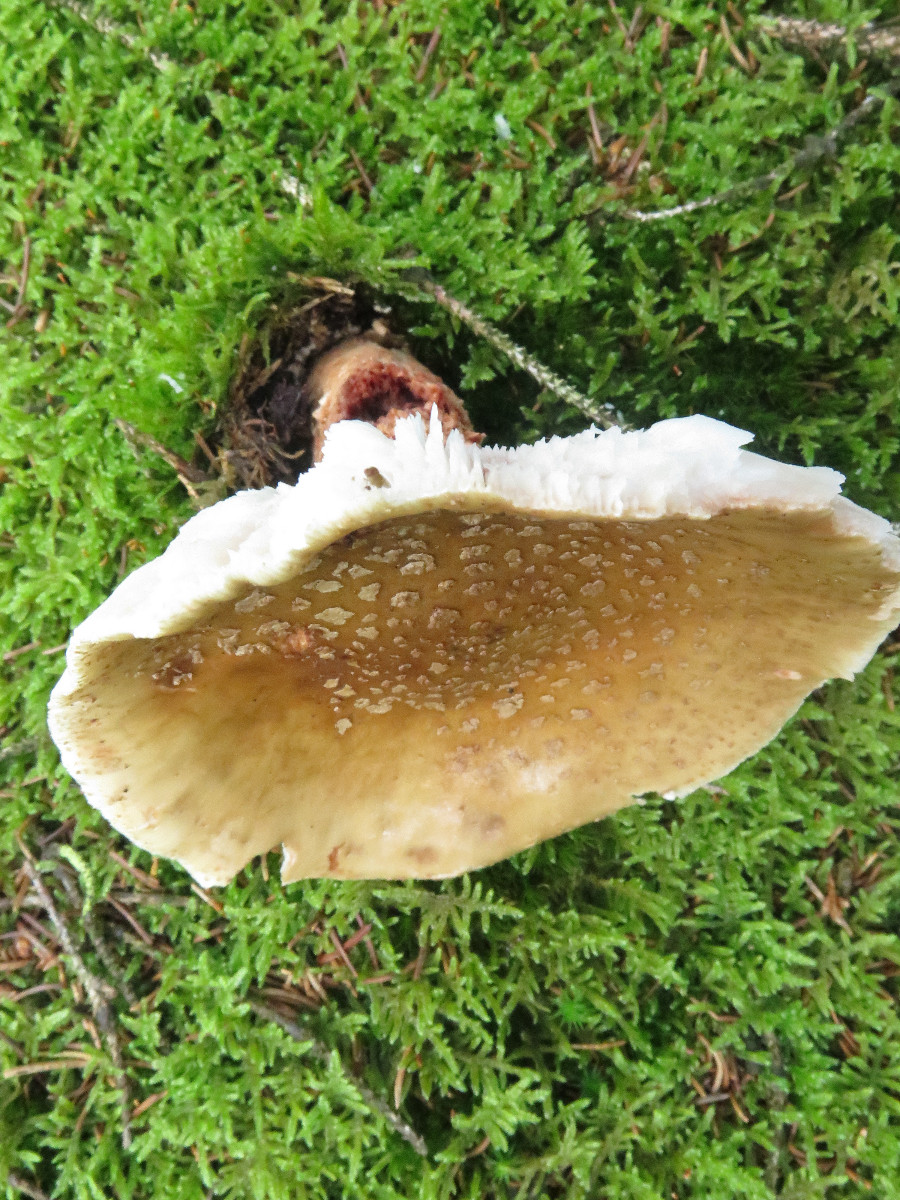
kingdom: Fungi
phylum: Basidiomycota
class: Agaricomycetes
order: Agaricales
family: Amanitaceae
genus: Amanita
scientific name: Amanita rubescens
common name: rødmende fluesvamp
